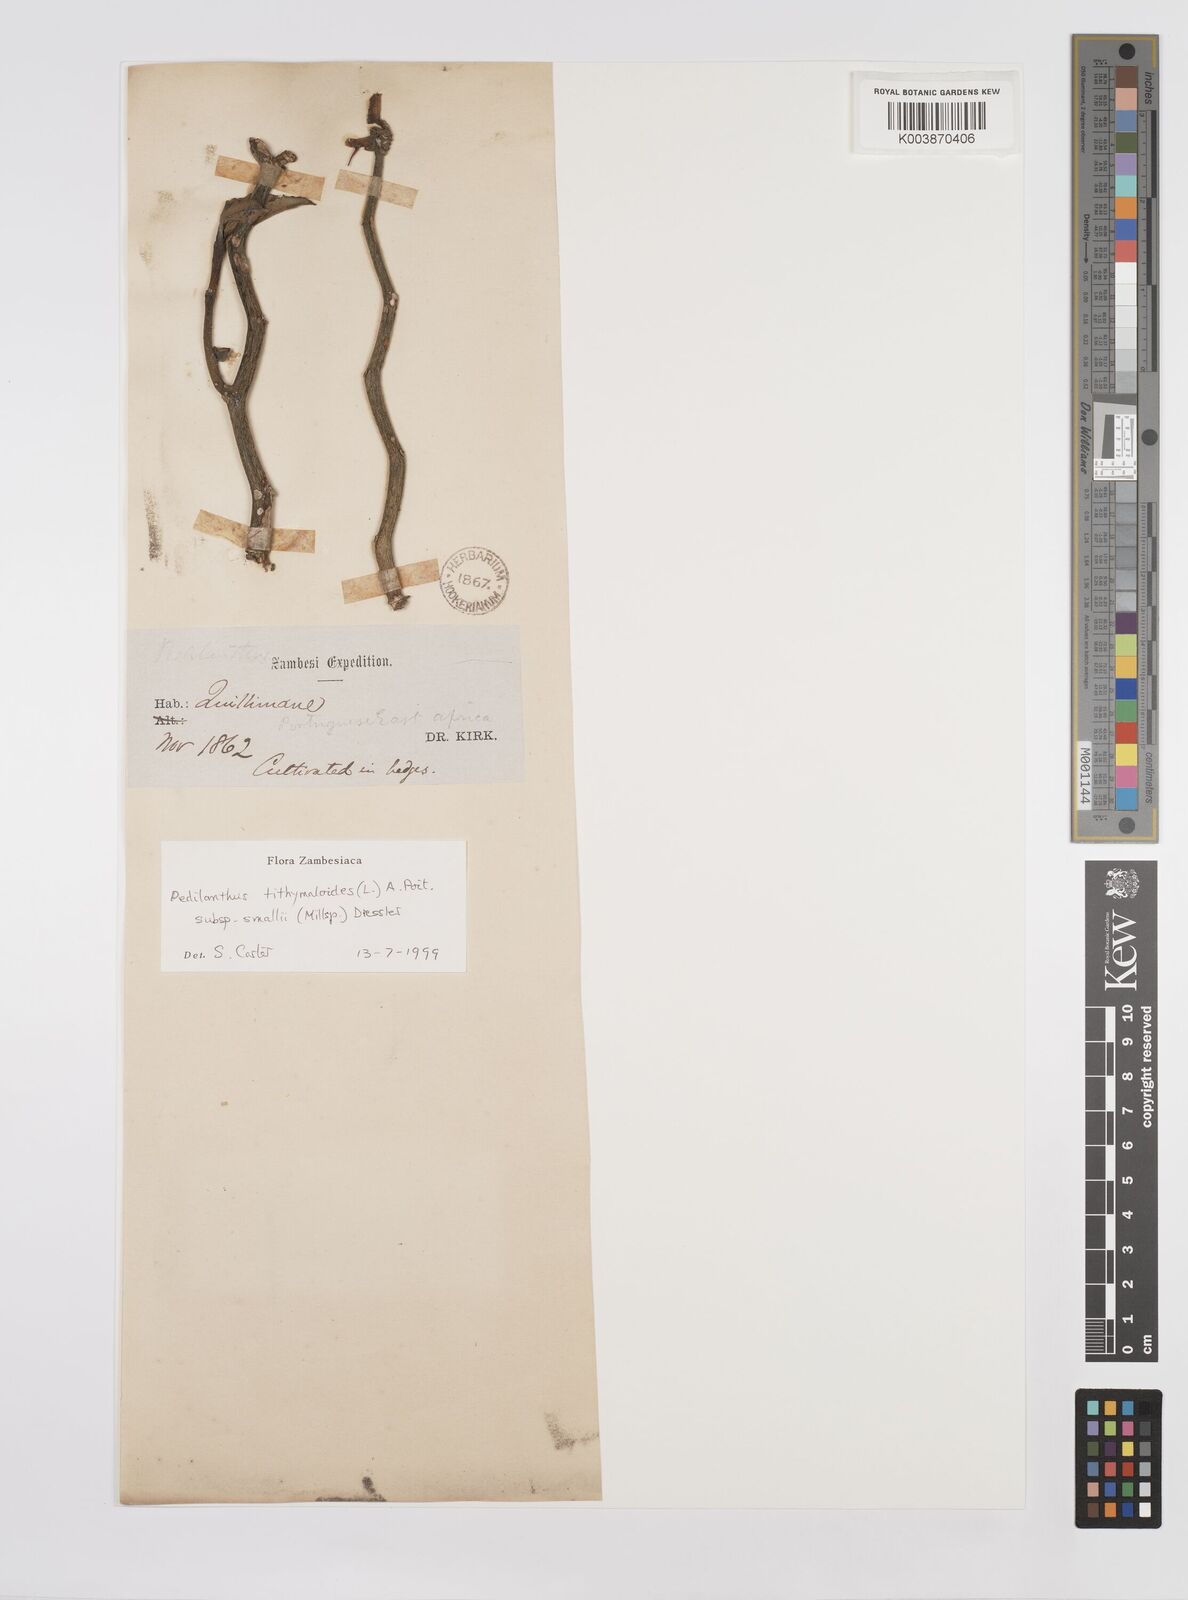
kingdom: Plantae
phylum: Tracheophyta
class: Magnoliopsida
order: Malpighiales
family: Euphorbiaceae
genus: Euphorbia
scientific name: Euphorbia tithymaloides
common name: Slipperplant
